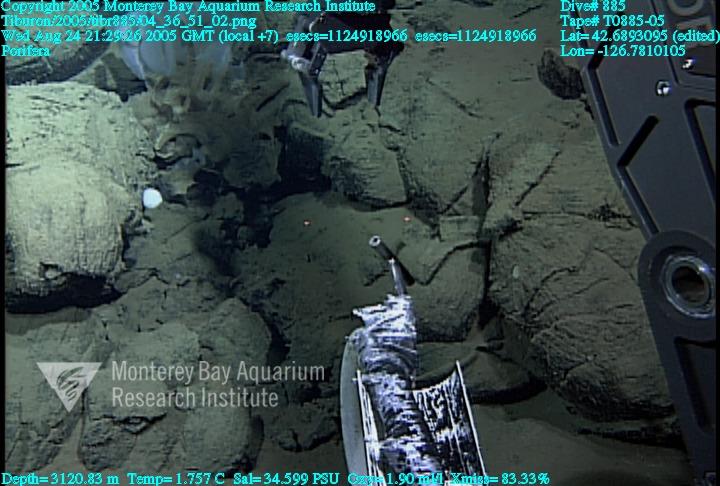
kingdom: Animalia
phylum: Porifera
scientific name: Porifera
